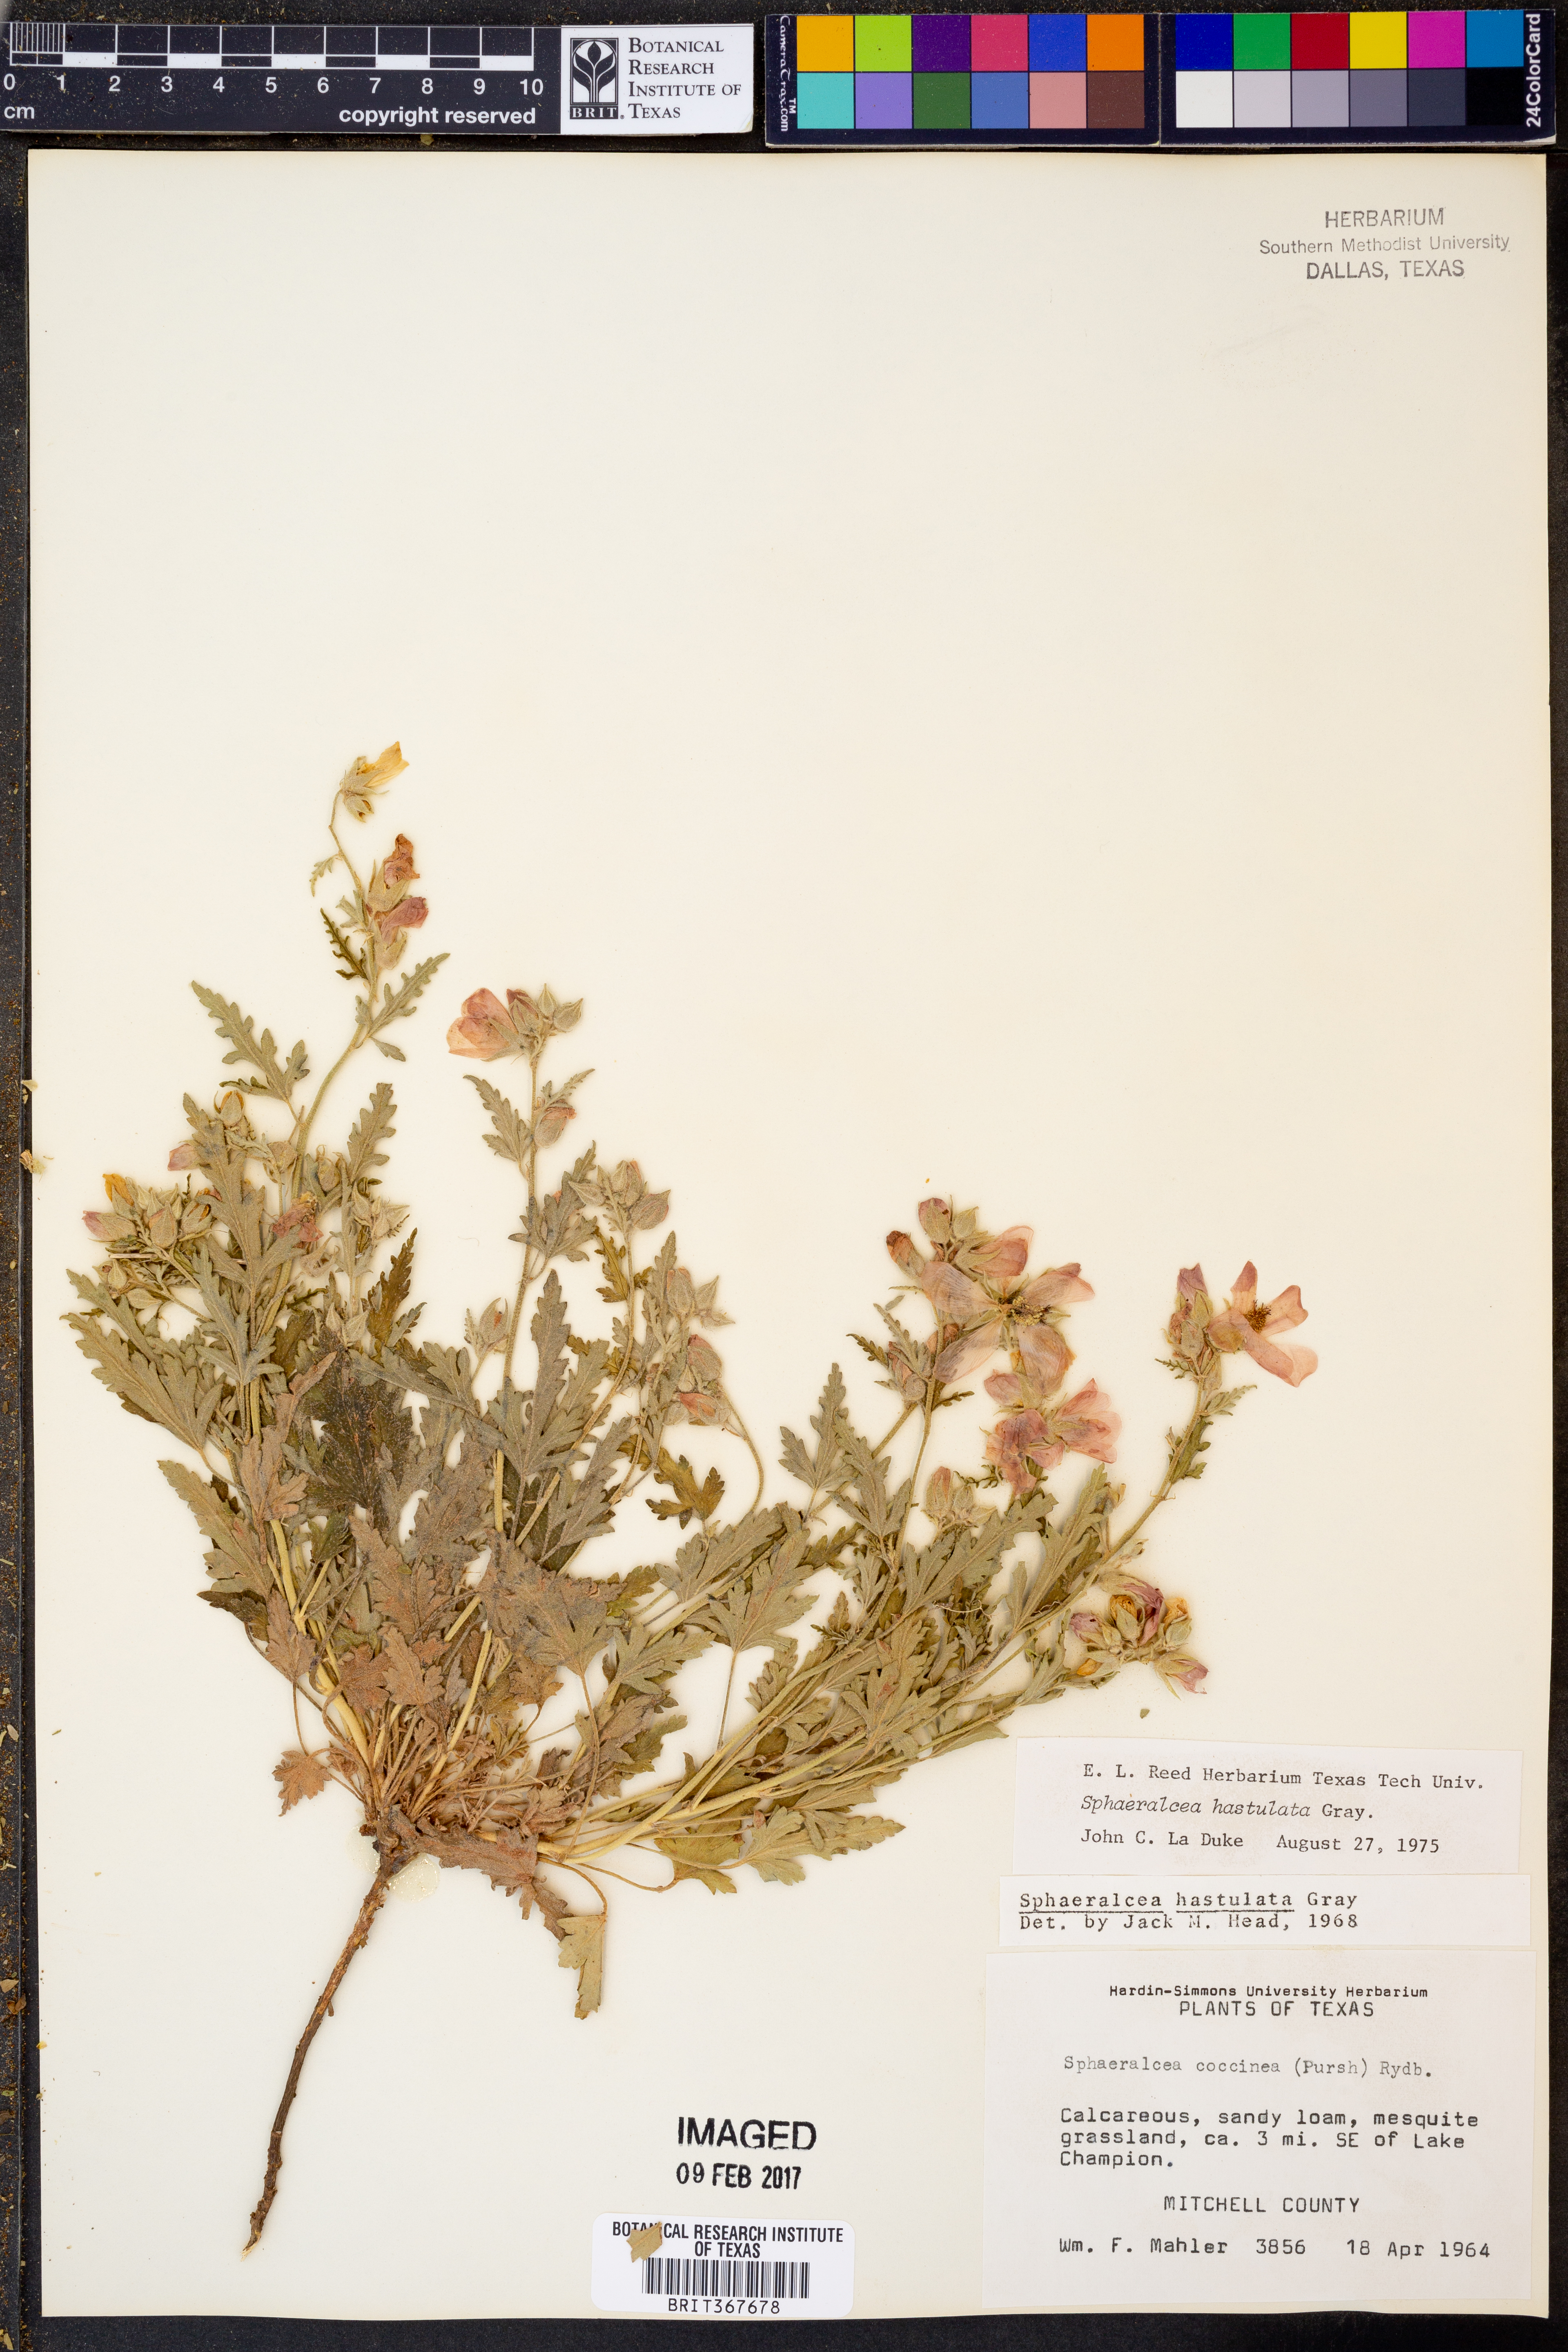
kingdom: Plantae
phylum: Tracheophyta
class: Magnoliopsida
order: Malvales
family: Malvaceae
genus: Sphaeralcea
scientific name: Sphaeralcea hastulata
